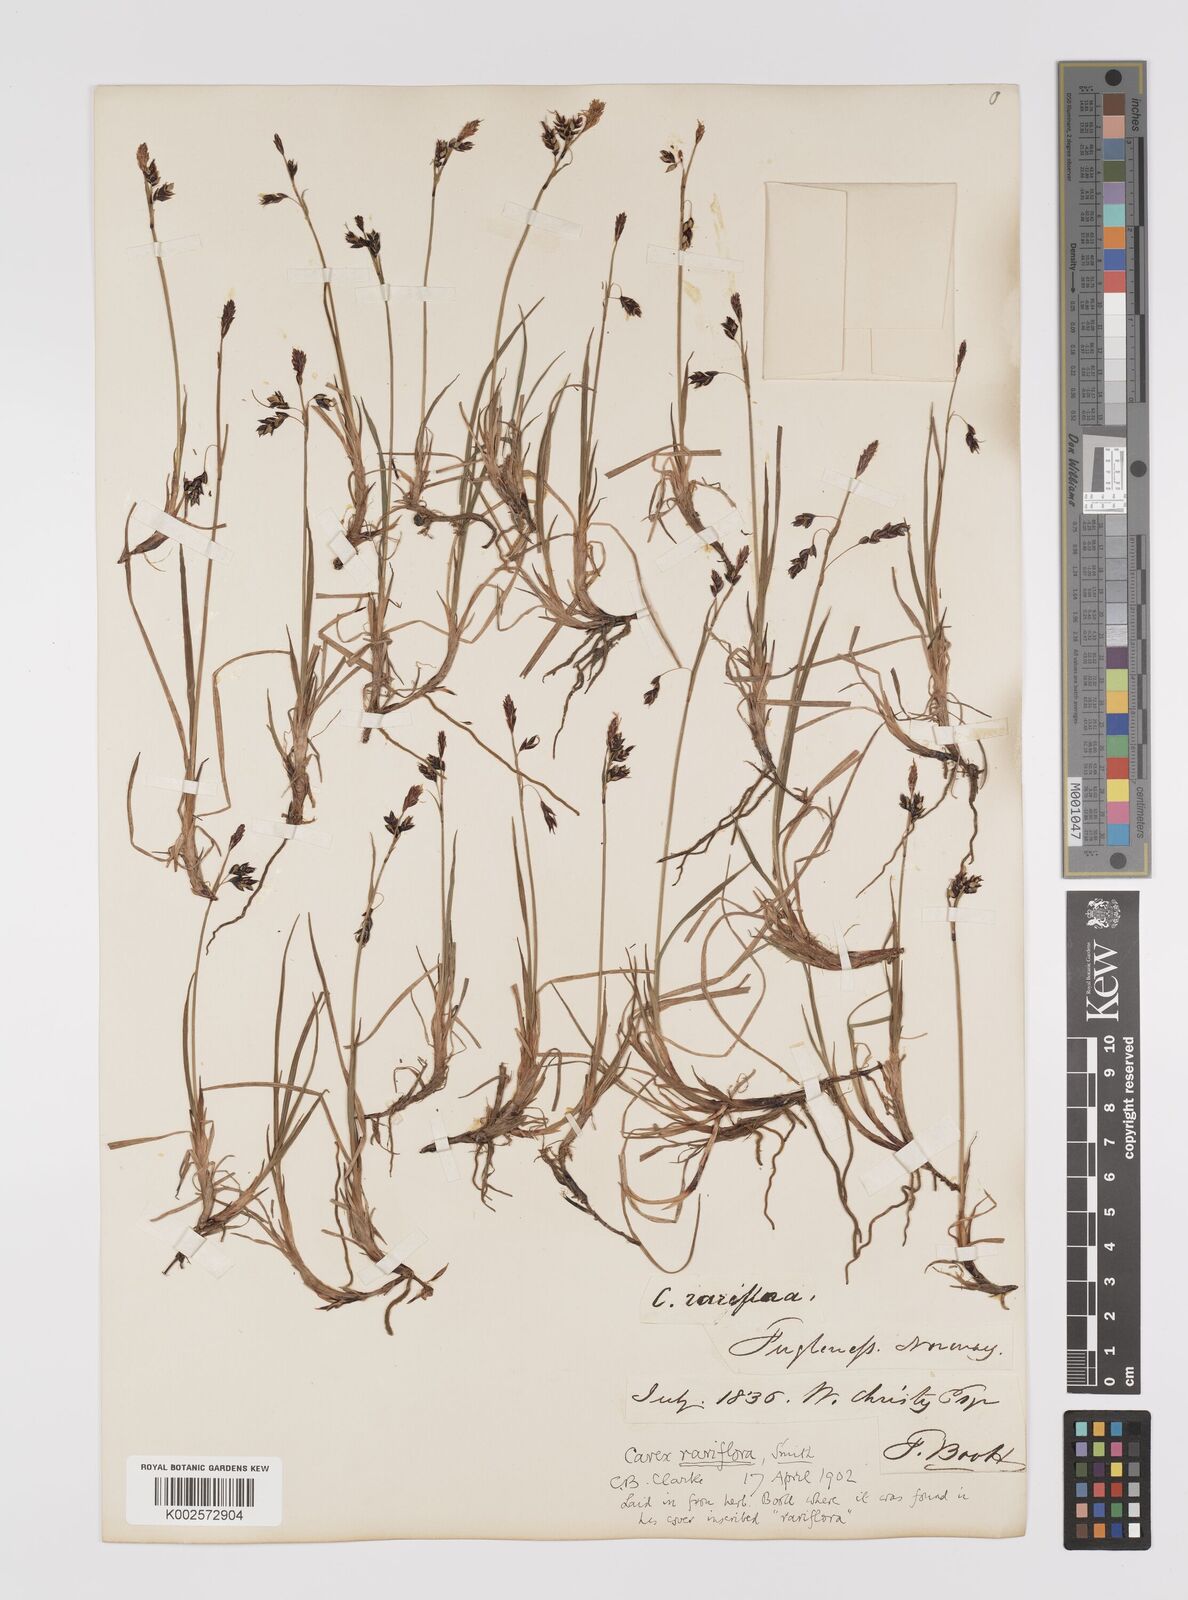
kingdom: Plantae
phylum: Tracheophyta
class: Liliopsida
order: Poales
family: Cyperaceae
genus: Carex
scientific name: Carex rariflora
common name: Loose-flowered alpine sedge
